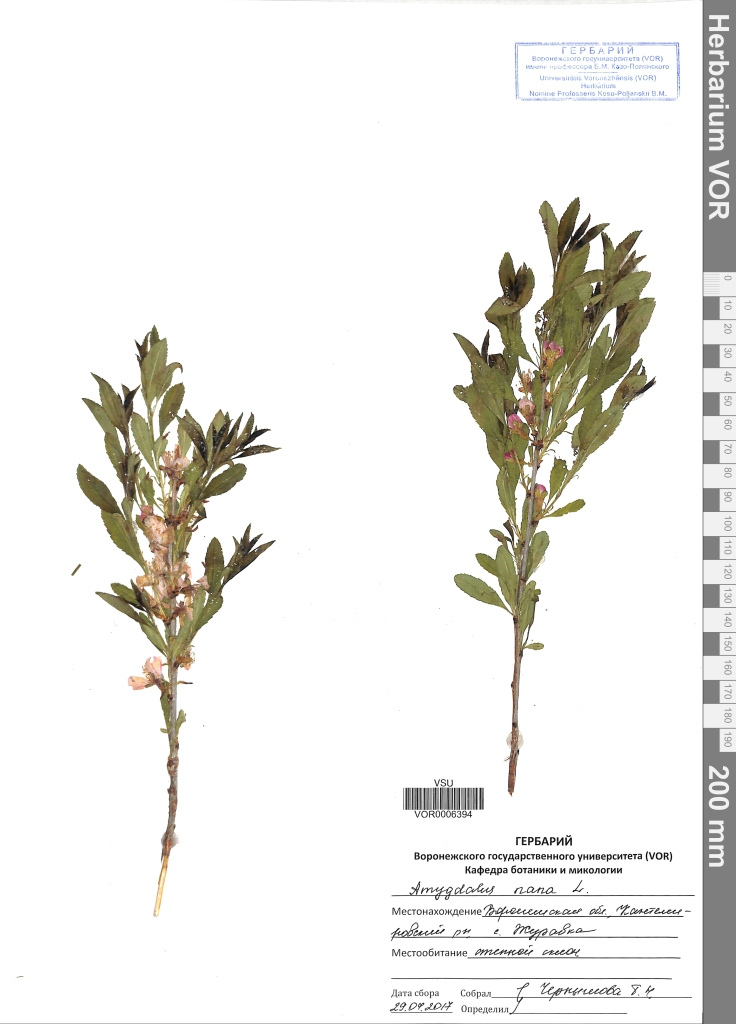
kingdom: Plantae
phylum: Tracheophyta
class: Magnoliopsida
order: Rosales
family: Rosaceae
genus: Prunus
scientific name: Prunus tenella
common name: Dwarf russian almond
